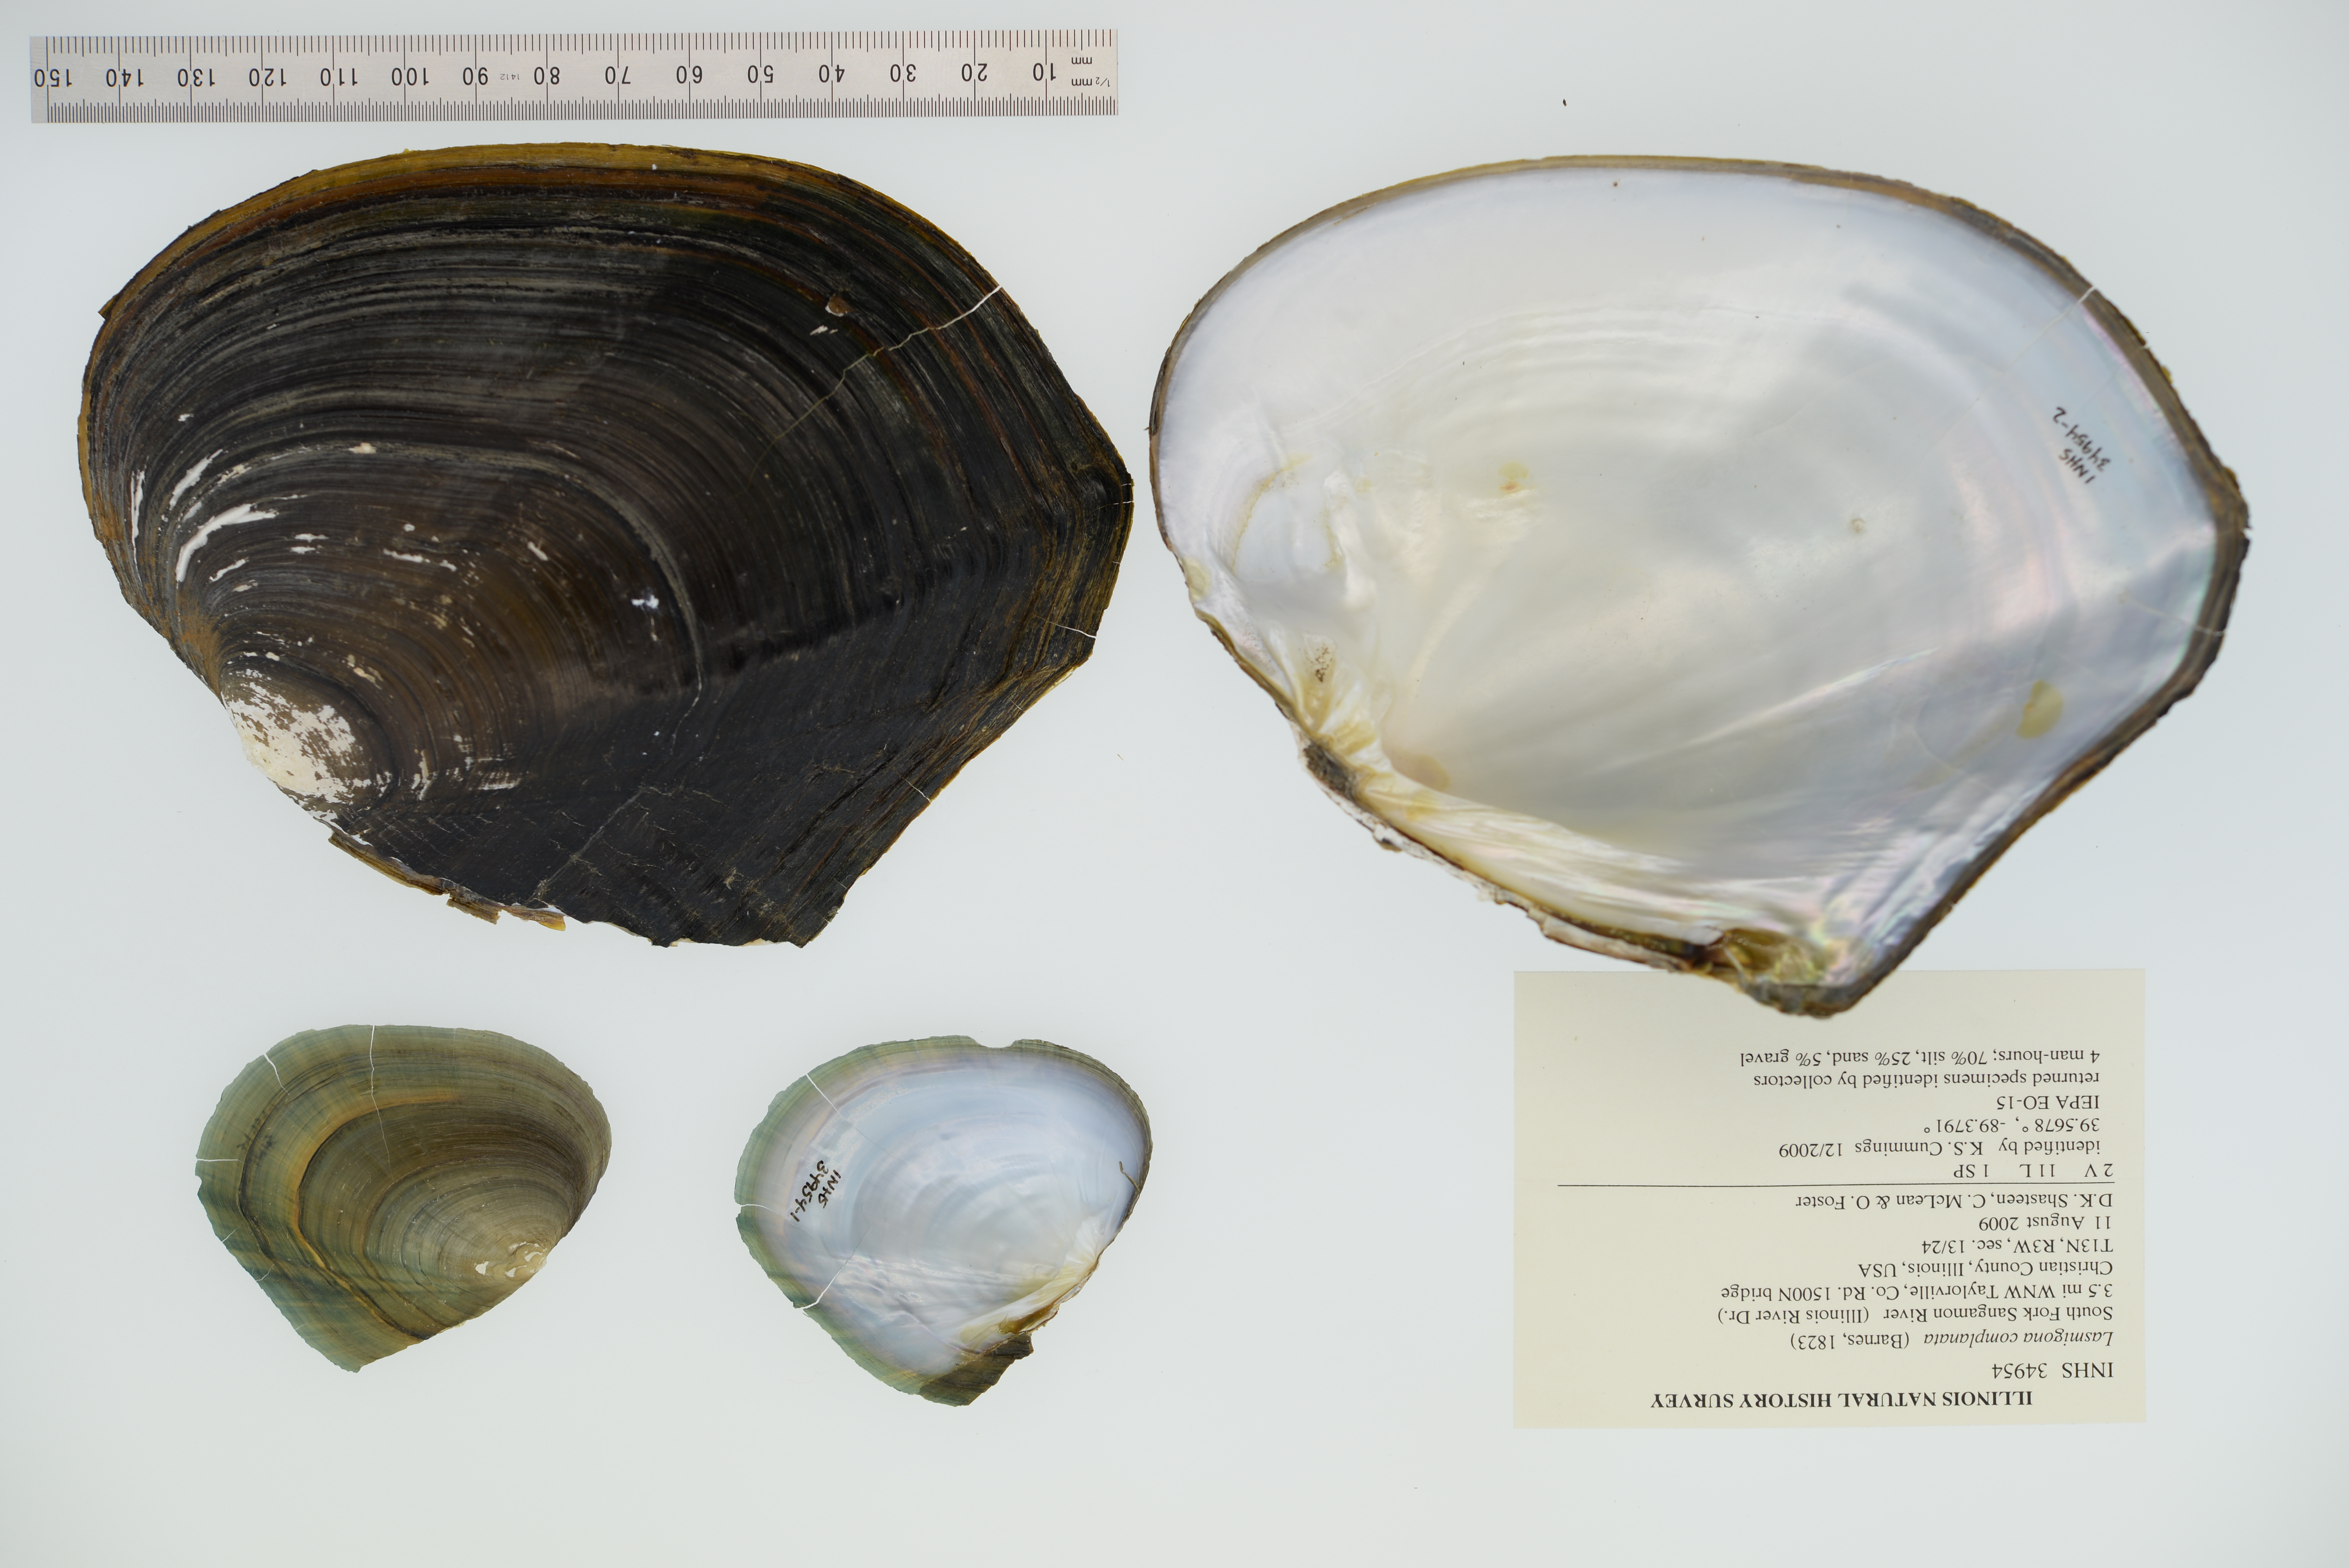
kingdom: Animalia
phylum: Mollusca
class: Bivalvia
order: Unionida
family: Unionidae
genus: Lasmigona
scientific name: Lasmigona complanata
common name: White heelsplitter
